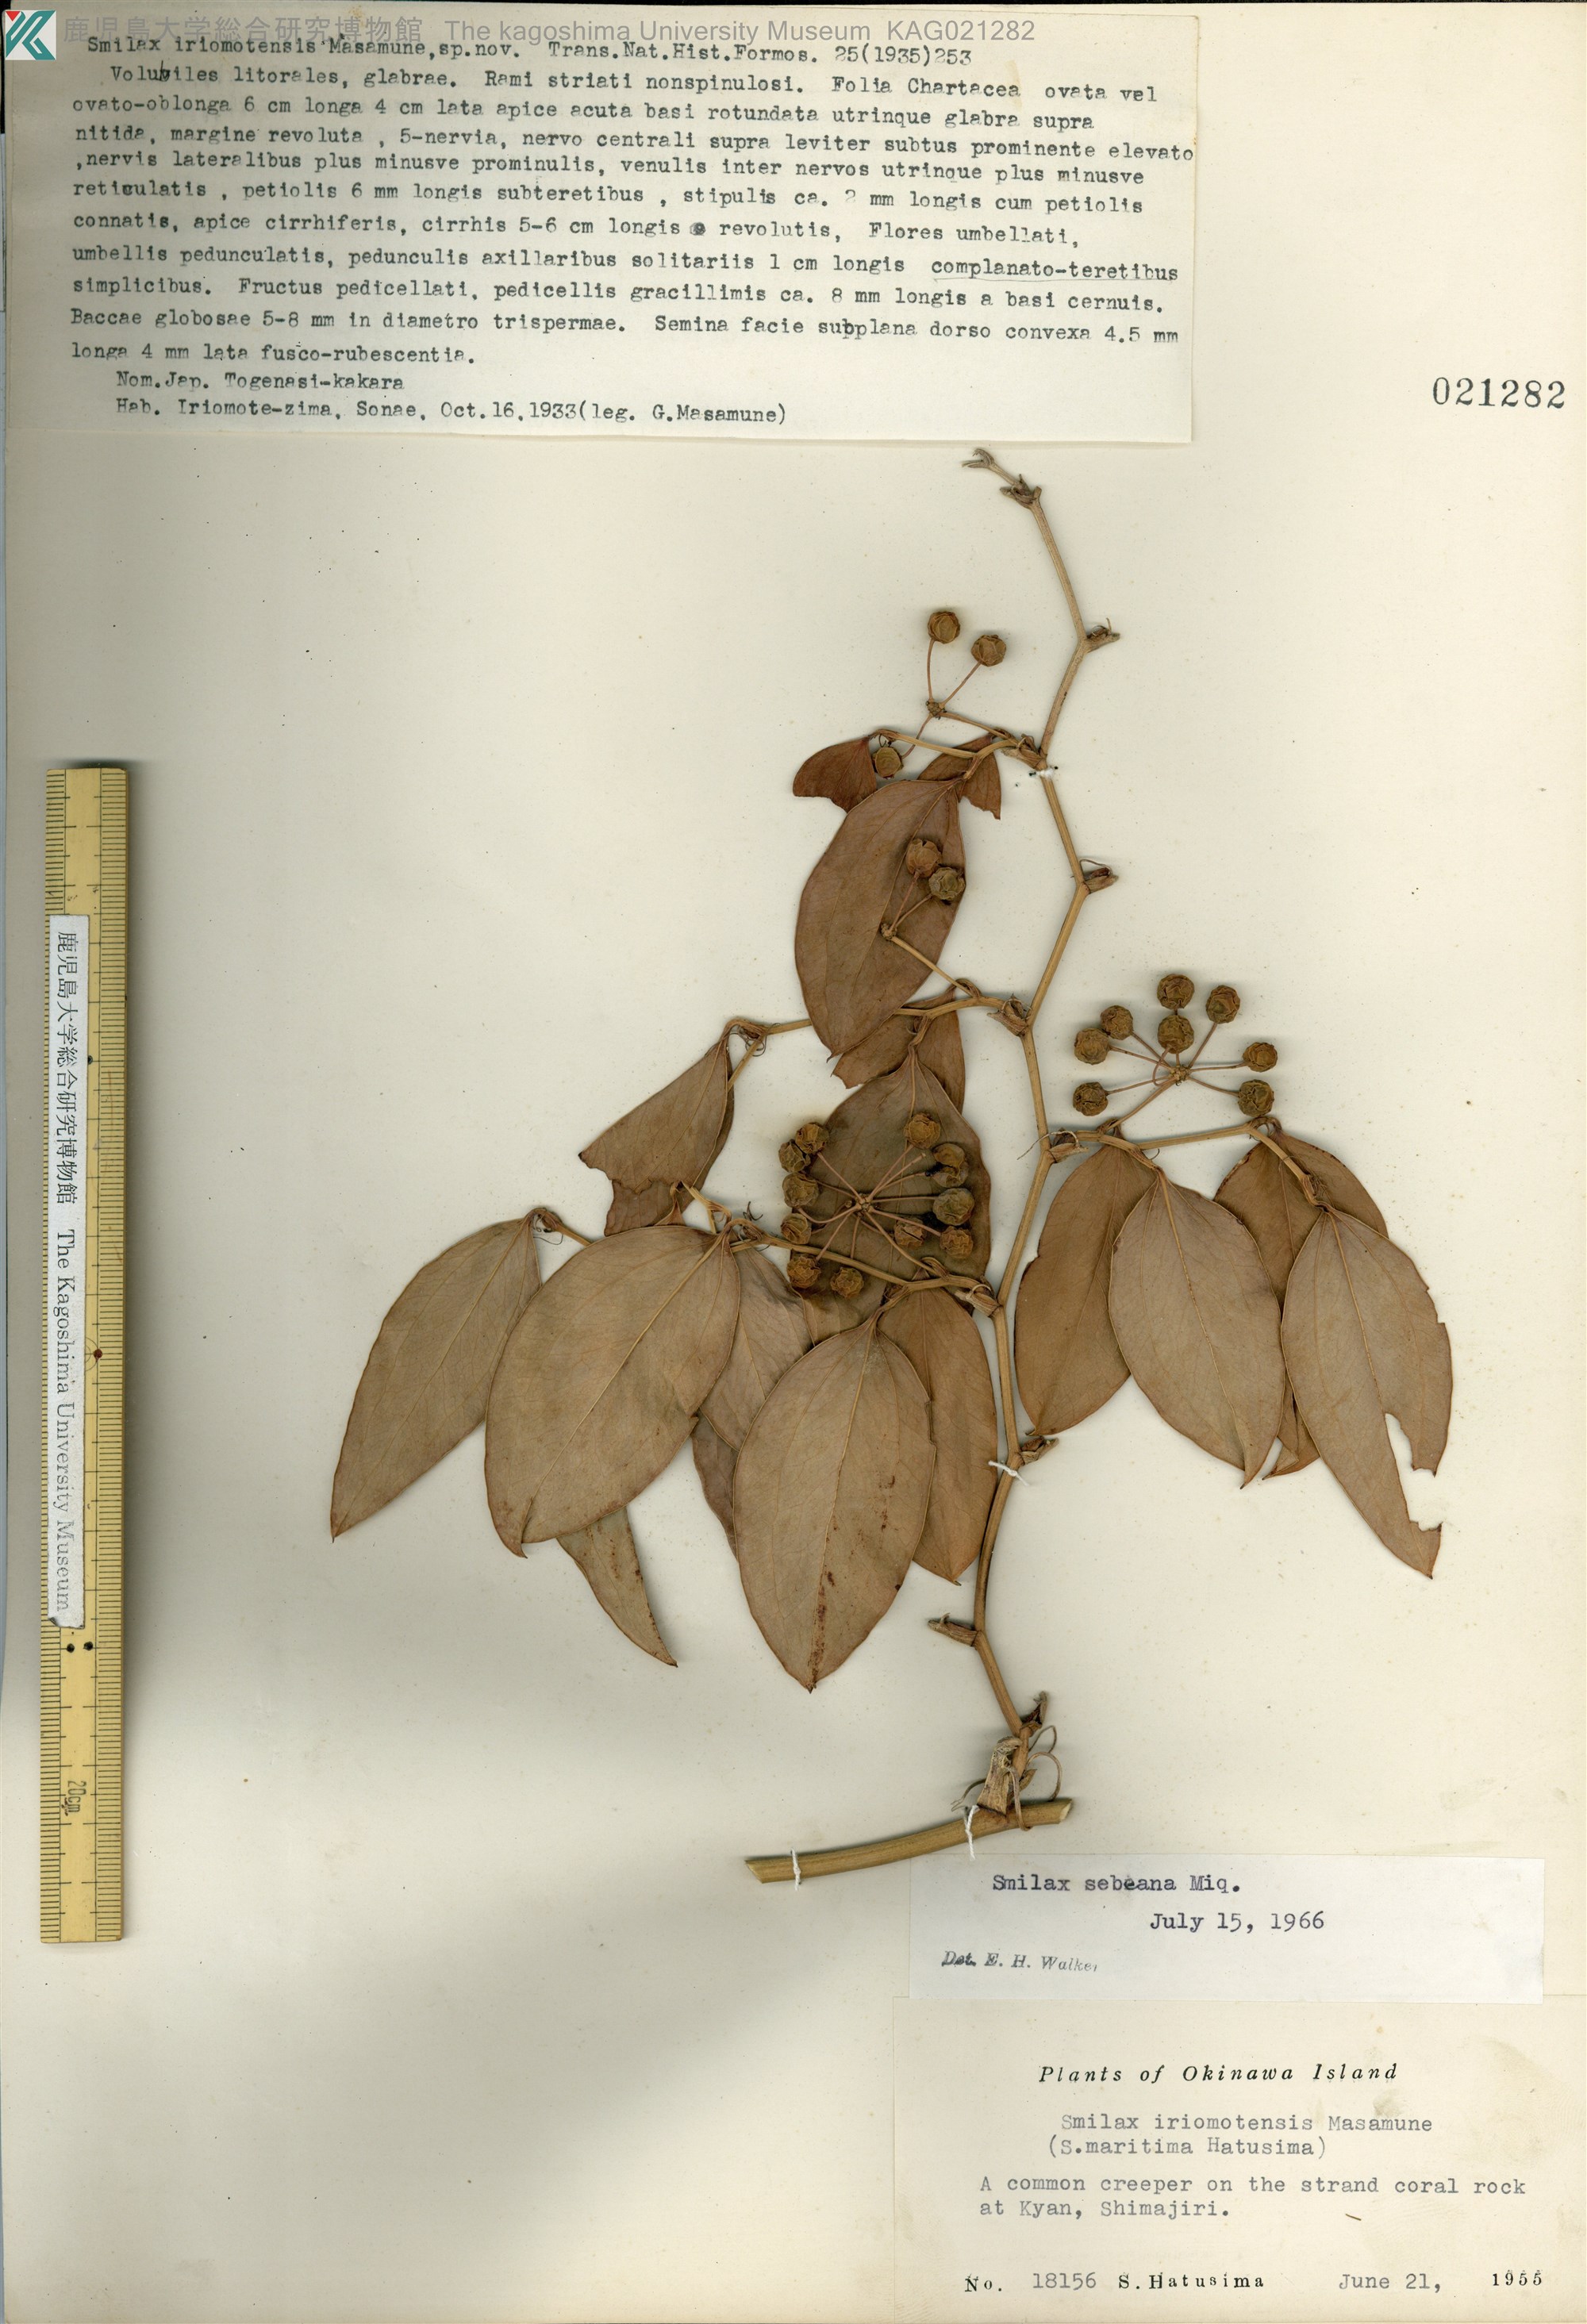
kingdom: Plantae
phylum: Tracheophyta
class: Liliopsida
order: Liliales
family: Smilacaceae
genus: Smilax
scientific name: Smilax sebeana
